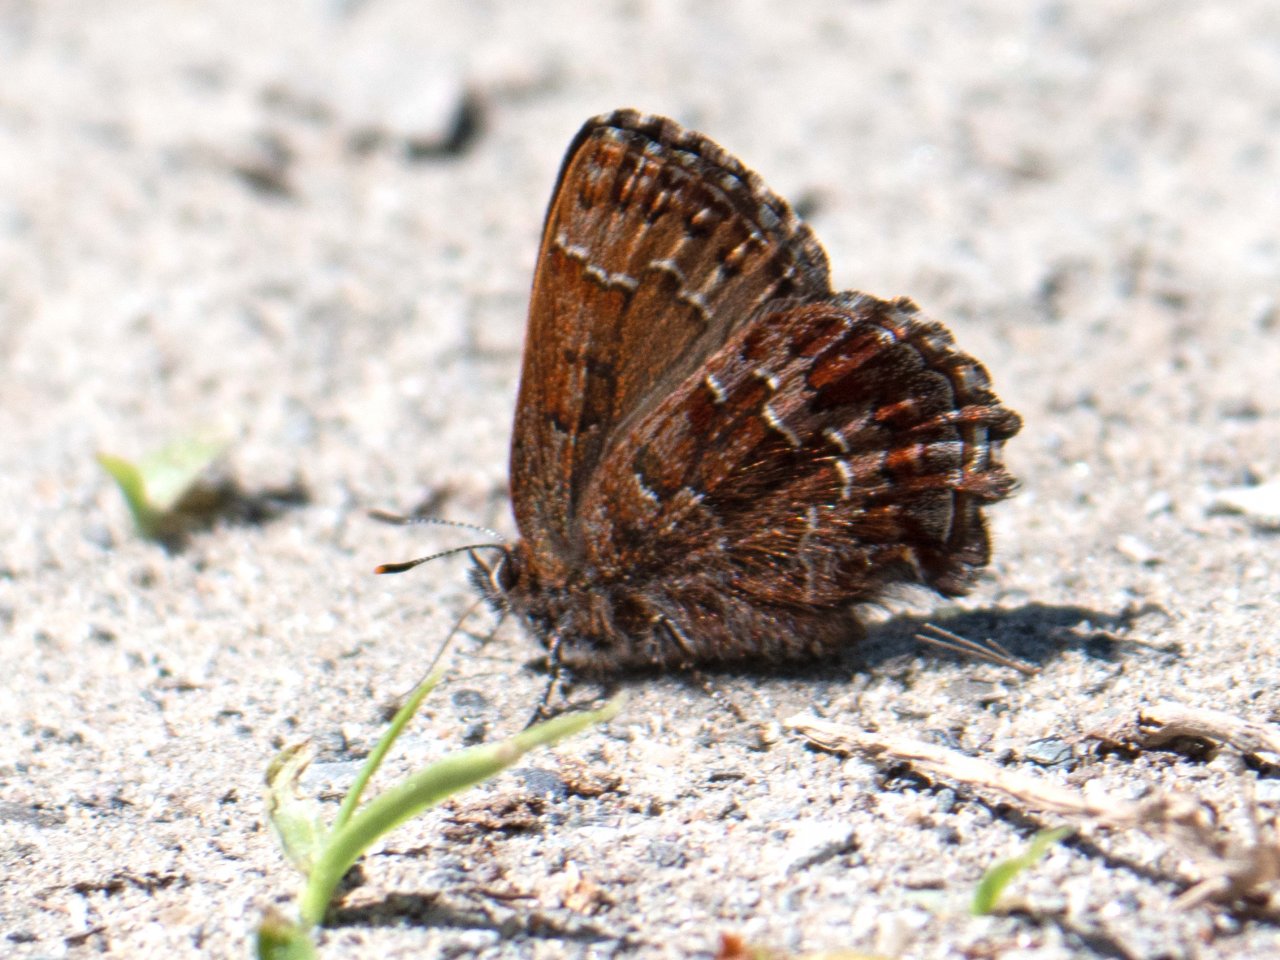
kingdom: Animalia
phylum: Arthropoda
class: Insecta
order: Lepidoptera
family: Lycaenidae
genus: Incisalia
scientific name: Incisalia niphon
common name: Eastern Pine Elfin
